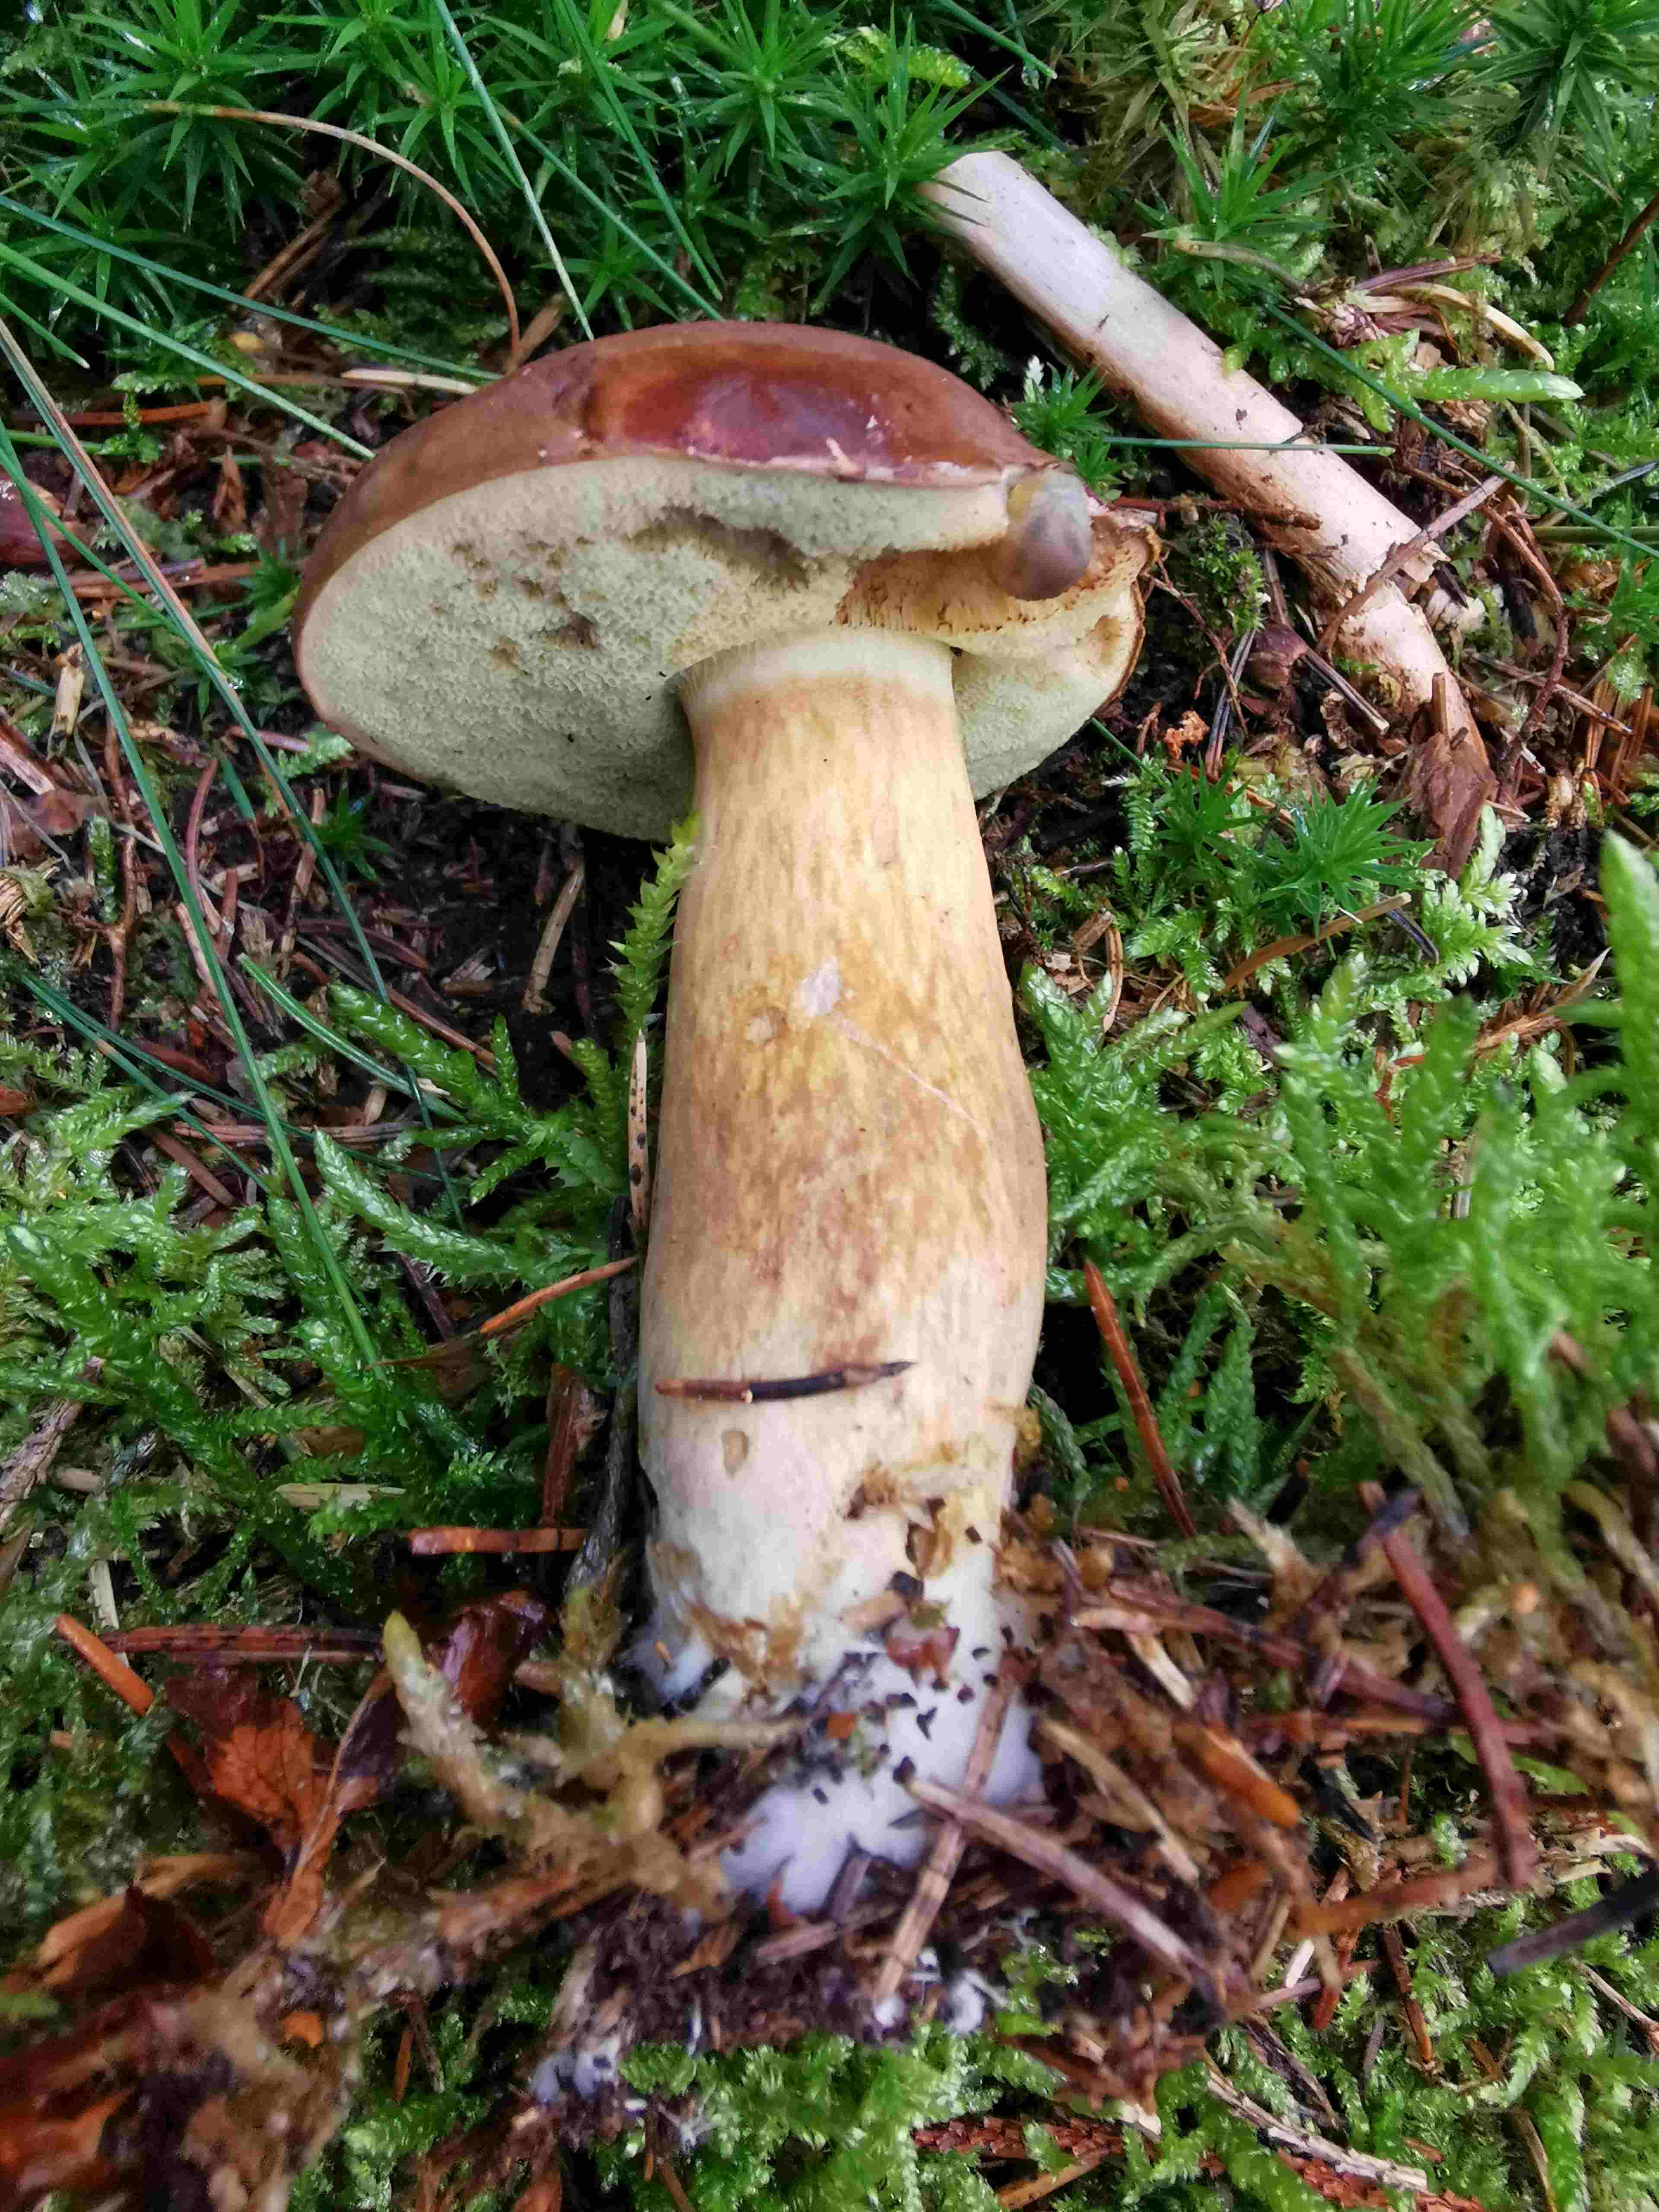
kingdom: Fungi
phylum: Basidiomycota
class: Agaricomycetes
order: Boletales
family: Boletaceae
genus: Imleria
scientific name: Imleria badia
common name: brunstokket rørhat
